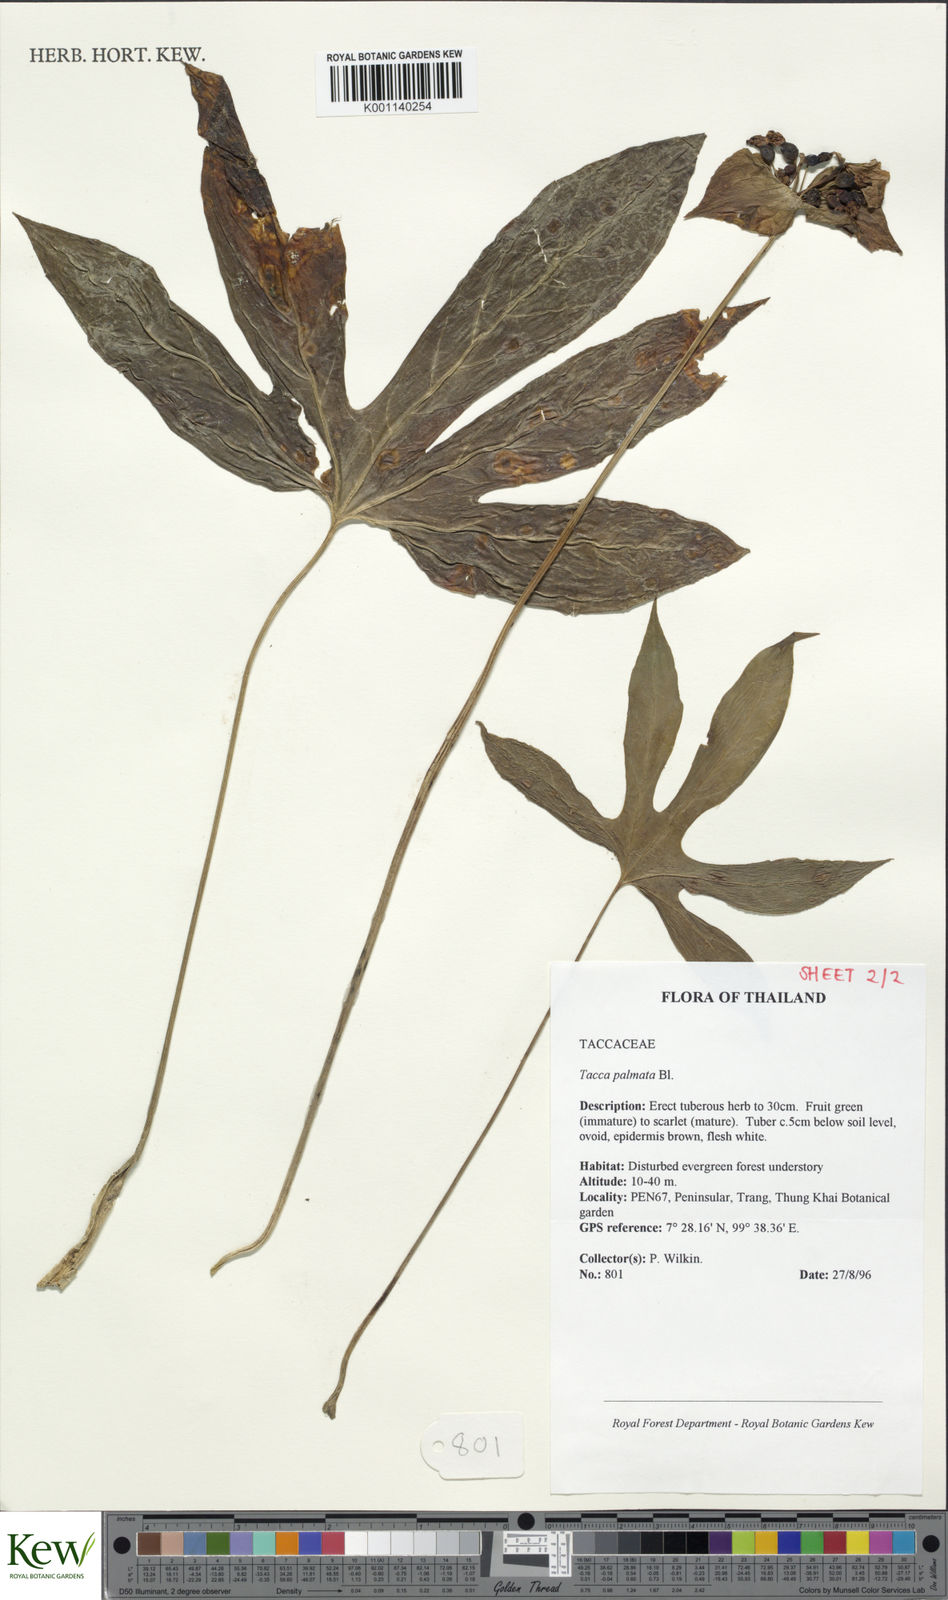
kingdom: Plantae
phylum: Tracheophyta
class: Liliopsida
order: Dioscoreales
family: Dioscoreaceae
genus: Tacca
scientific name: Tacca palmata
